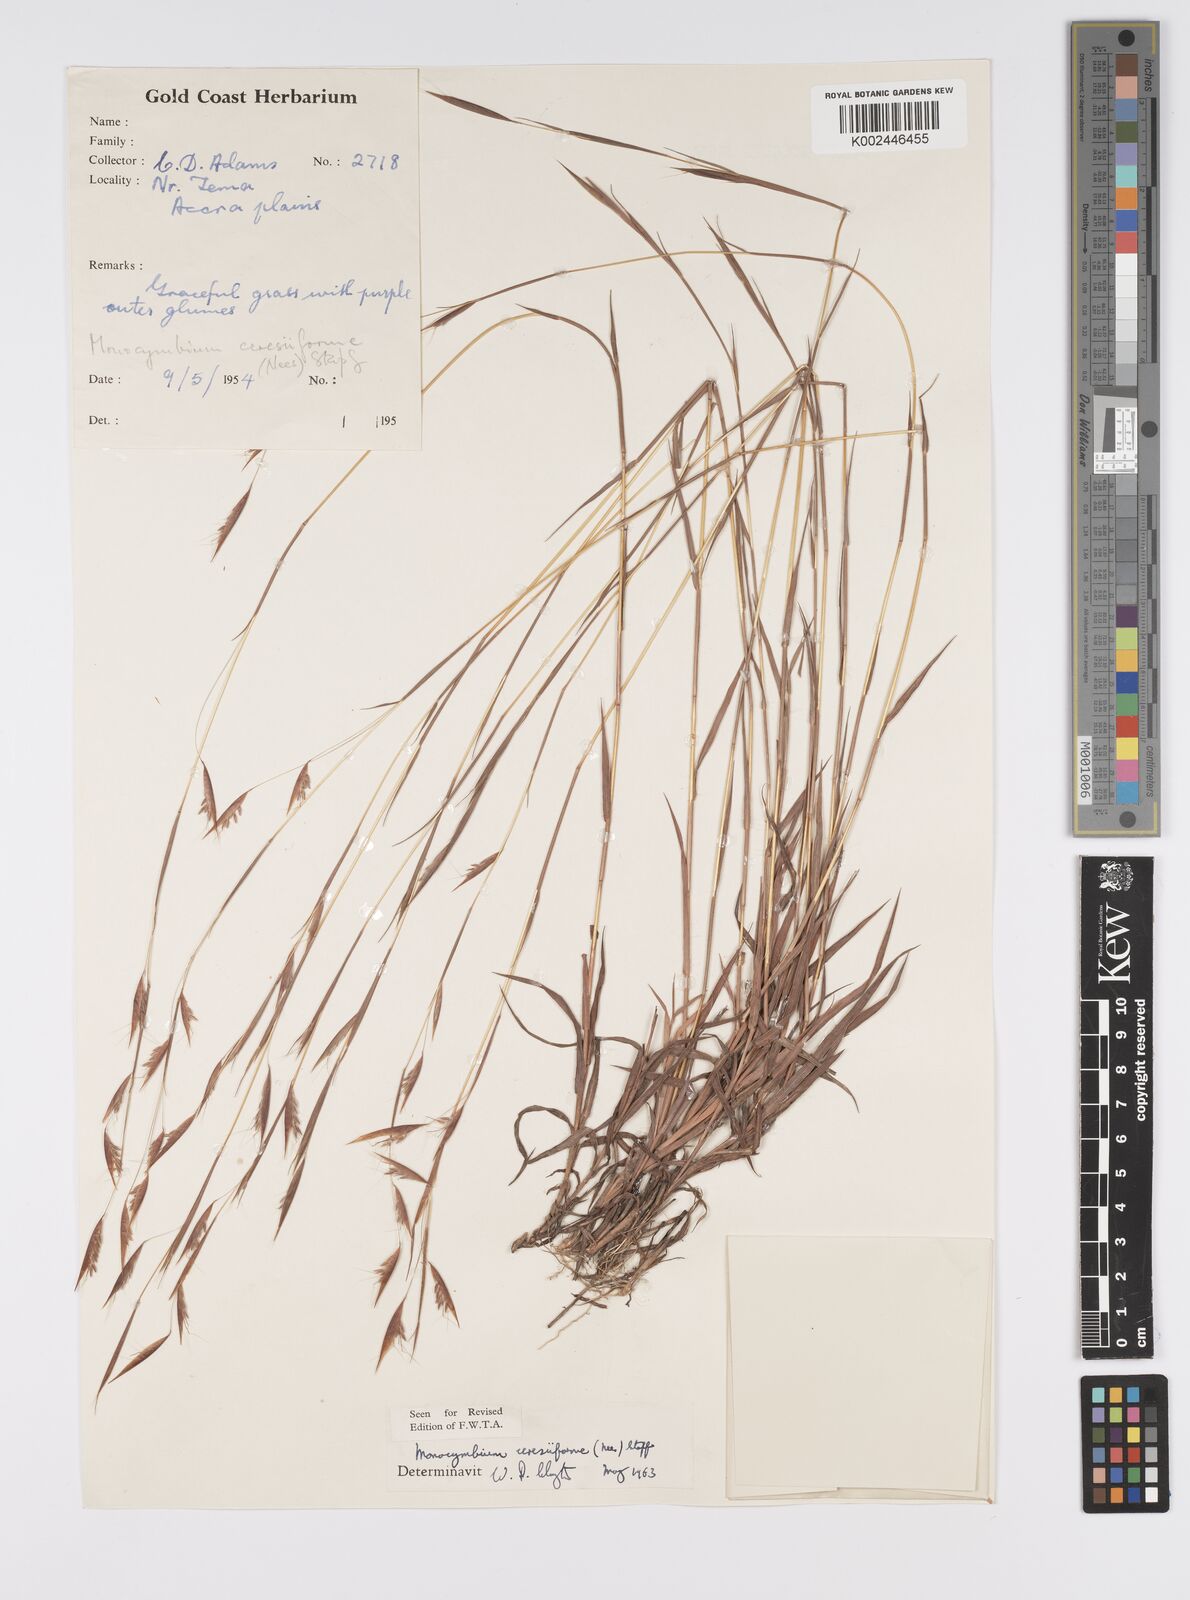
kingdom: Plantae
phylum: Tracheophyta
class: Liliopsida
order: Poales
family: Poaceae
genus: Monocymbium
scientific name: Monocymbium ceresiiforme
